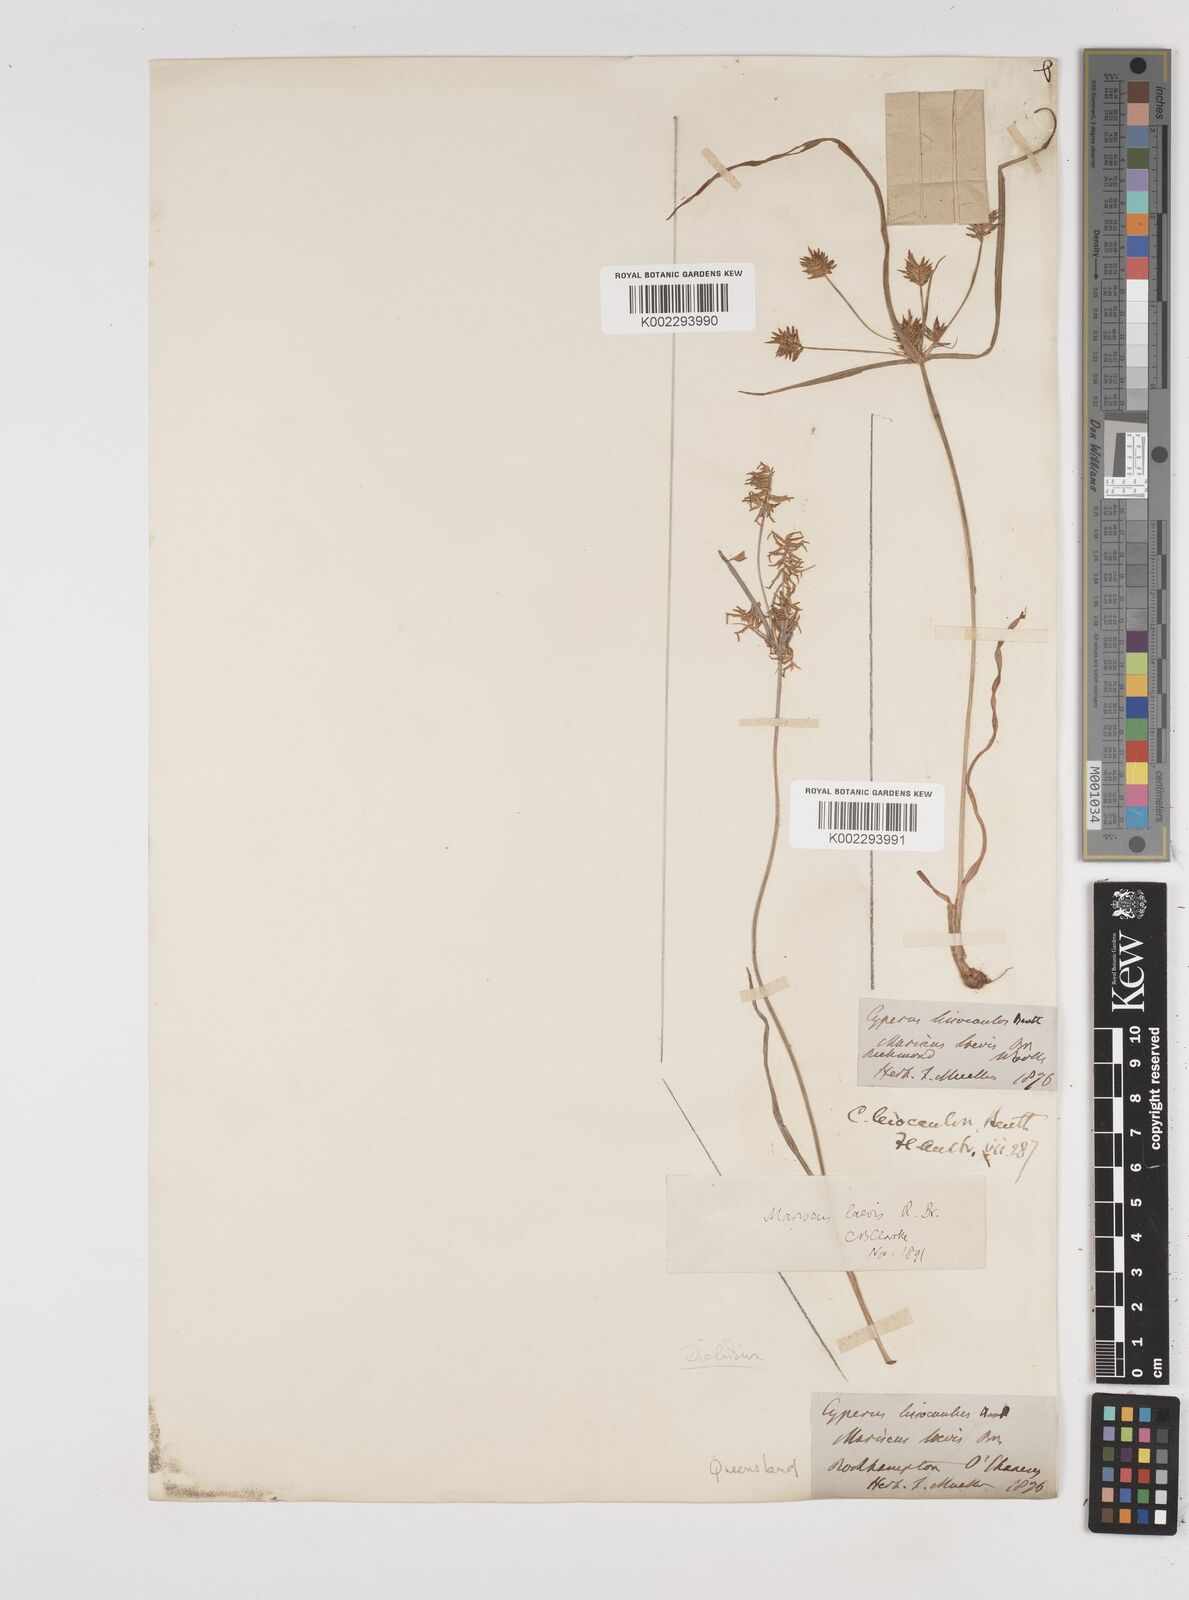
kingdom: Plantae
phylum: Tracheophyta
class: Liliopsida
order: Poales
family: Cyperaceae
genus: Cyperus
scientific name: Cyperus leiocaulon
